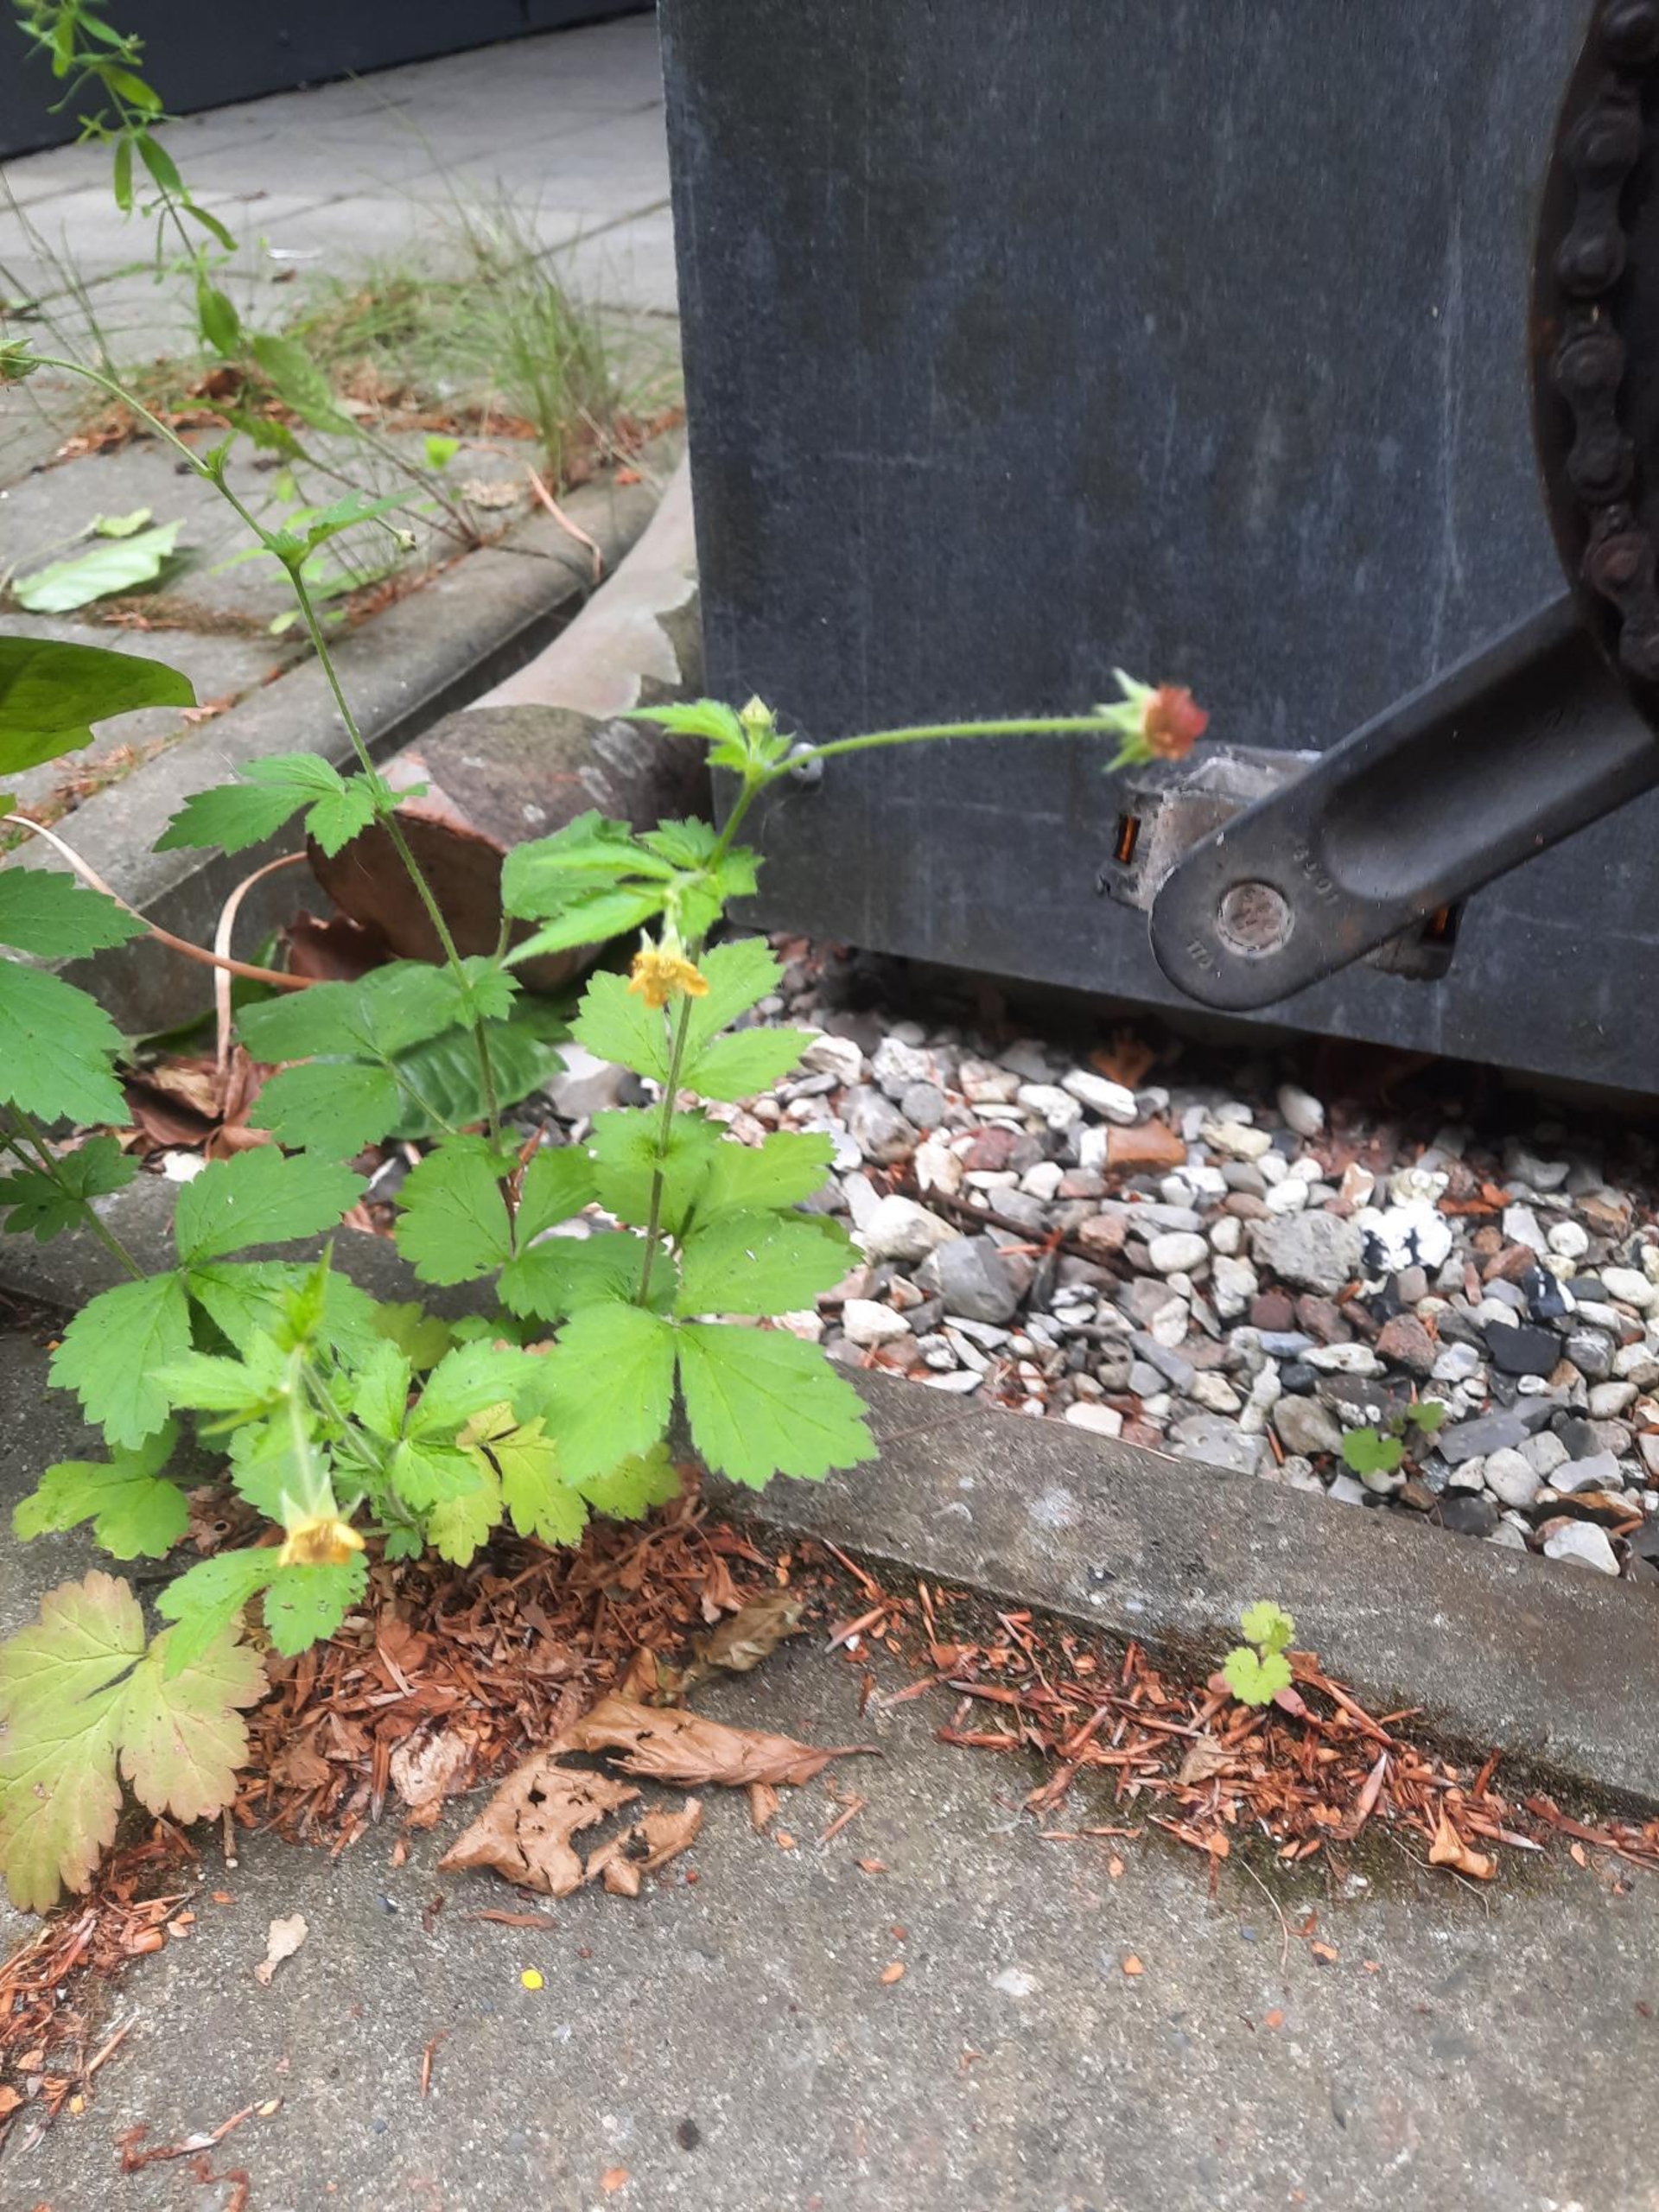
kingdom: Plantae
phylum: Tracheophyta
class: Magnoliopsida
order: Rosales
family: Rosaceae
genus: Geum
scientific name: Geum urbanum
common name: Feber-nellikerod
